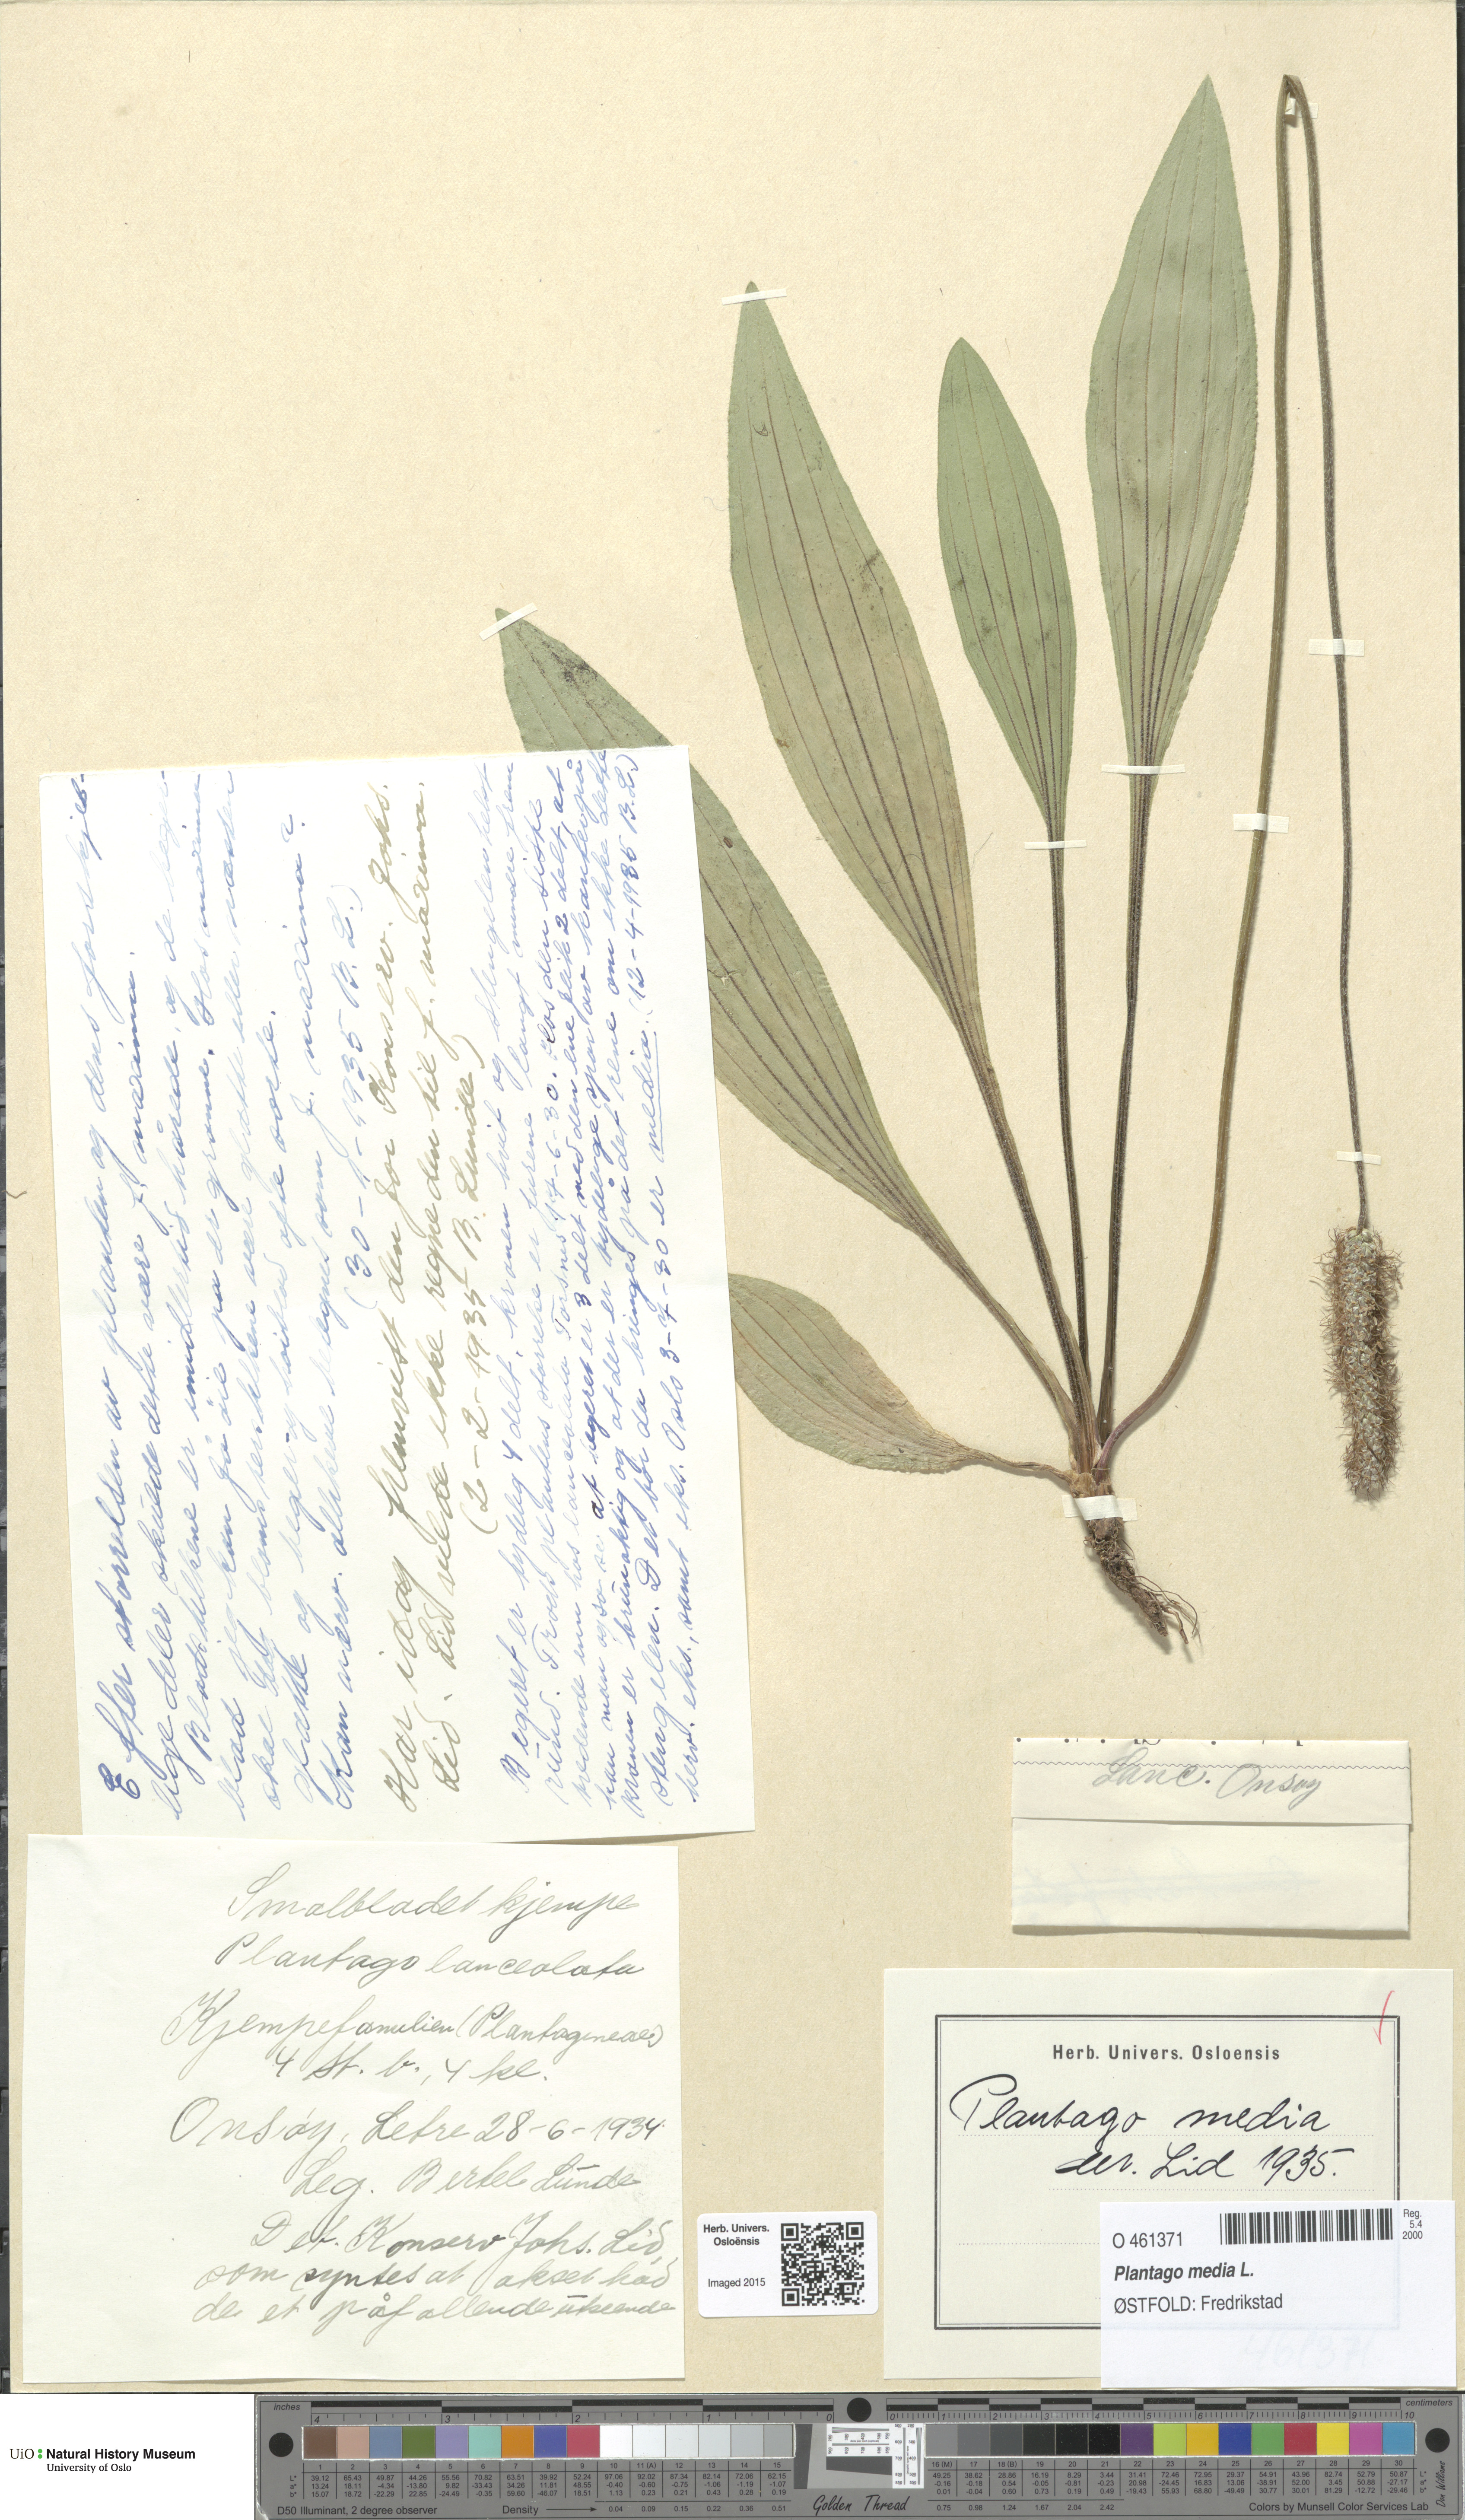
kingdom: Plantae
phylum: Tracheophyta
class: Magnoliopsida
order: Lamiales
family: Plantaginaceae
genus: Plantago
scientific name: Plantago media
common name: Hoary plantain
